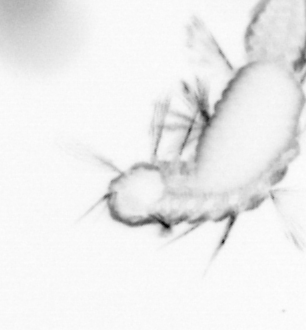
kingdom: Animalia
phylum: Annelida
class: Polychaeta
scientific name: Polychaeta
